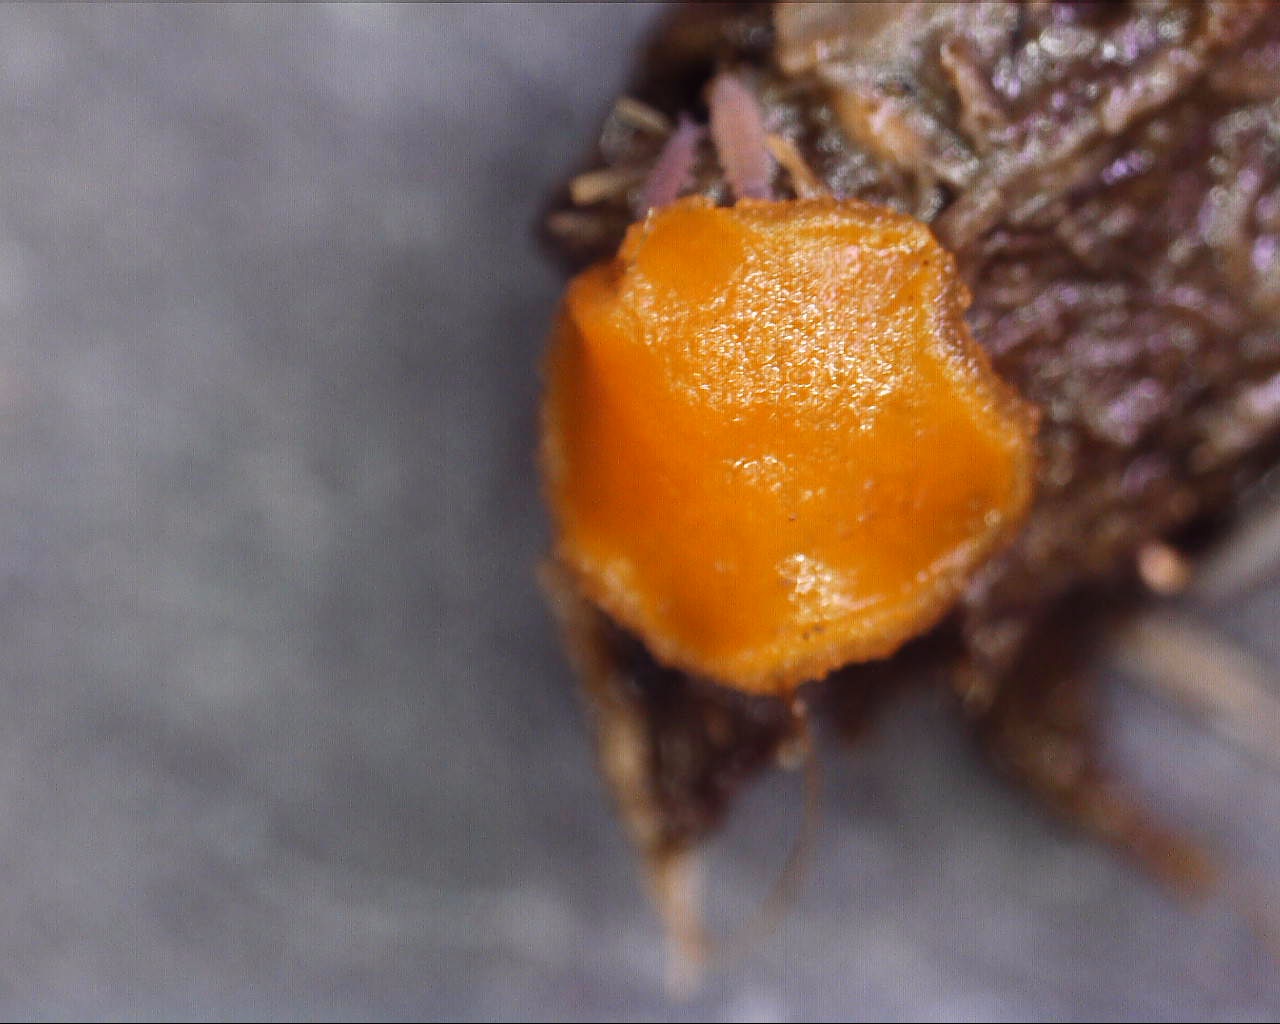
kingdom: Fungi
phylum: Ascomycota
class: Pezizomycetes
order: Pezizales
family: Pyronemataceae
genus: Cheilymenia
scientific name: Cheilymenia granulata
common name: møgbæger
